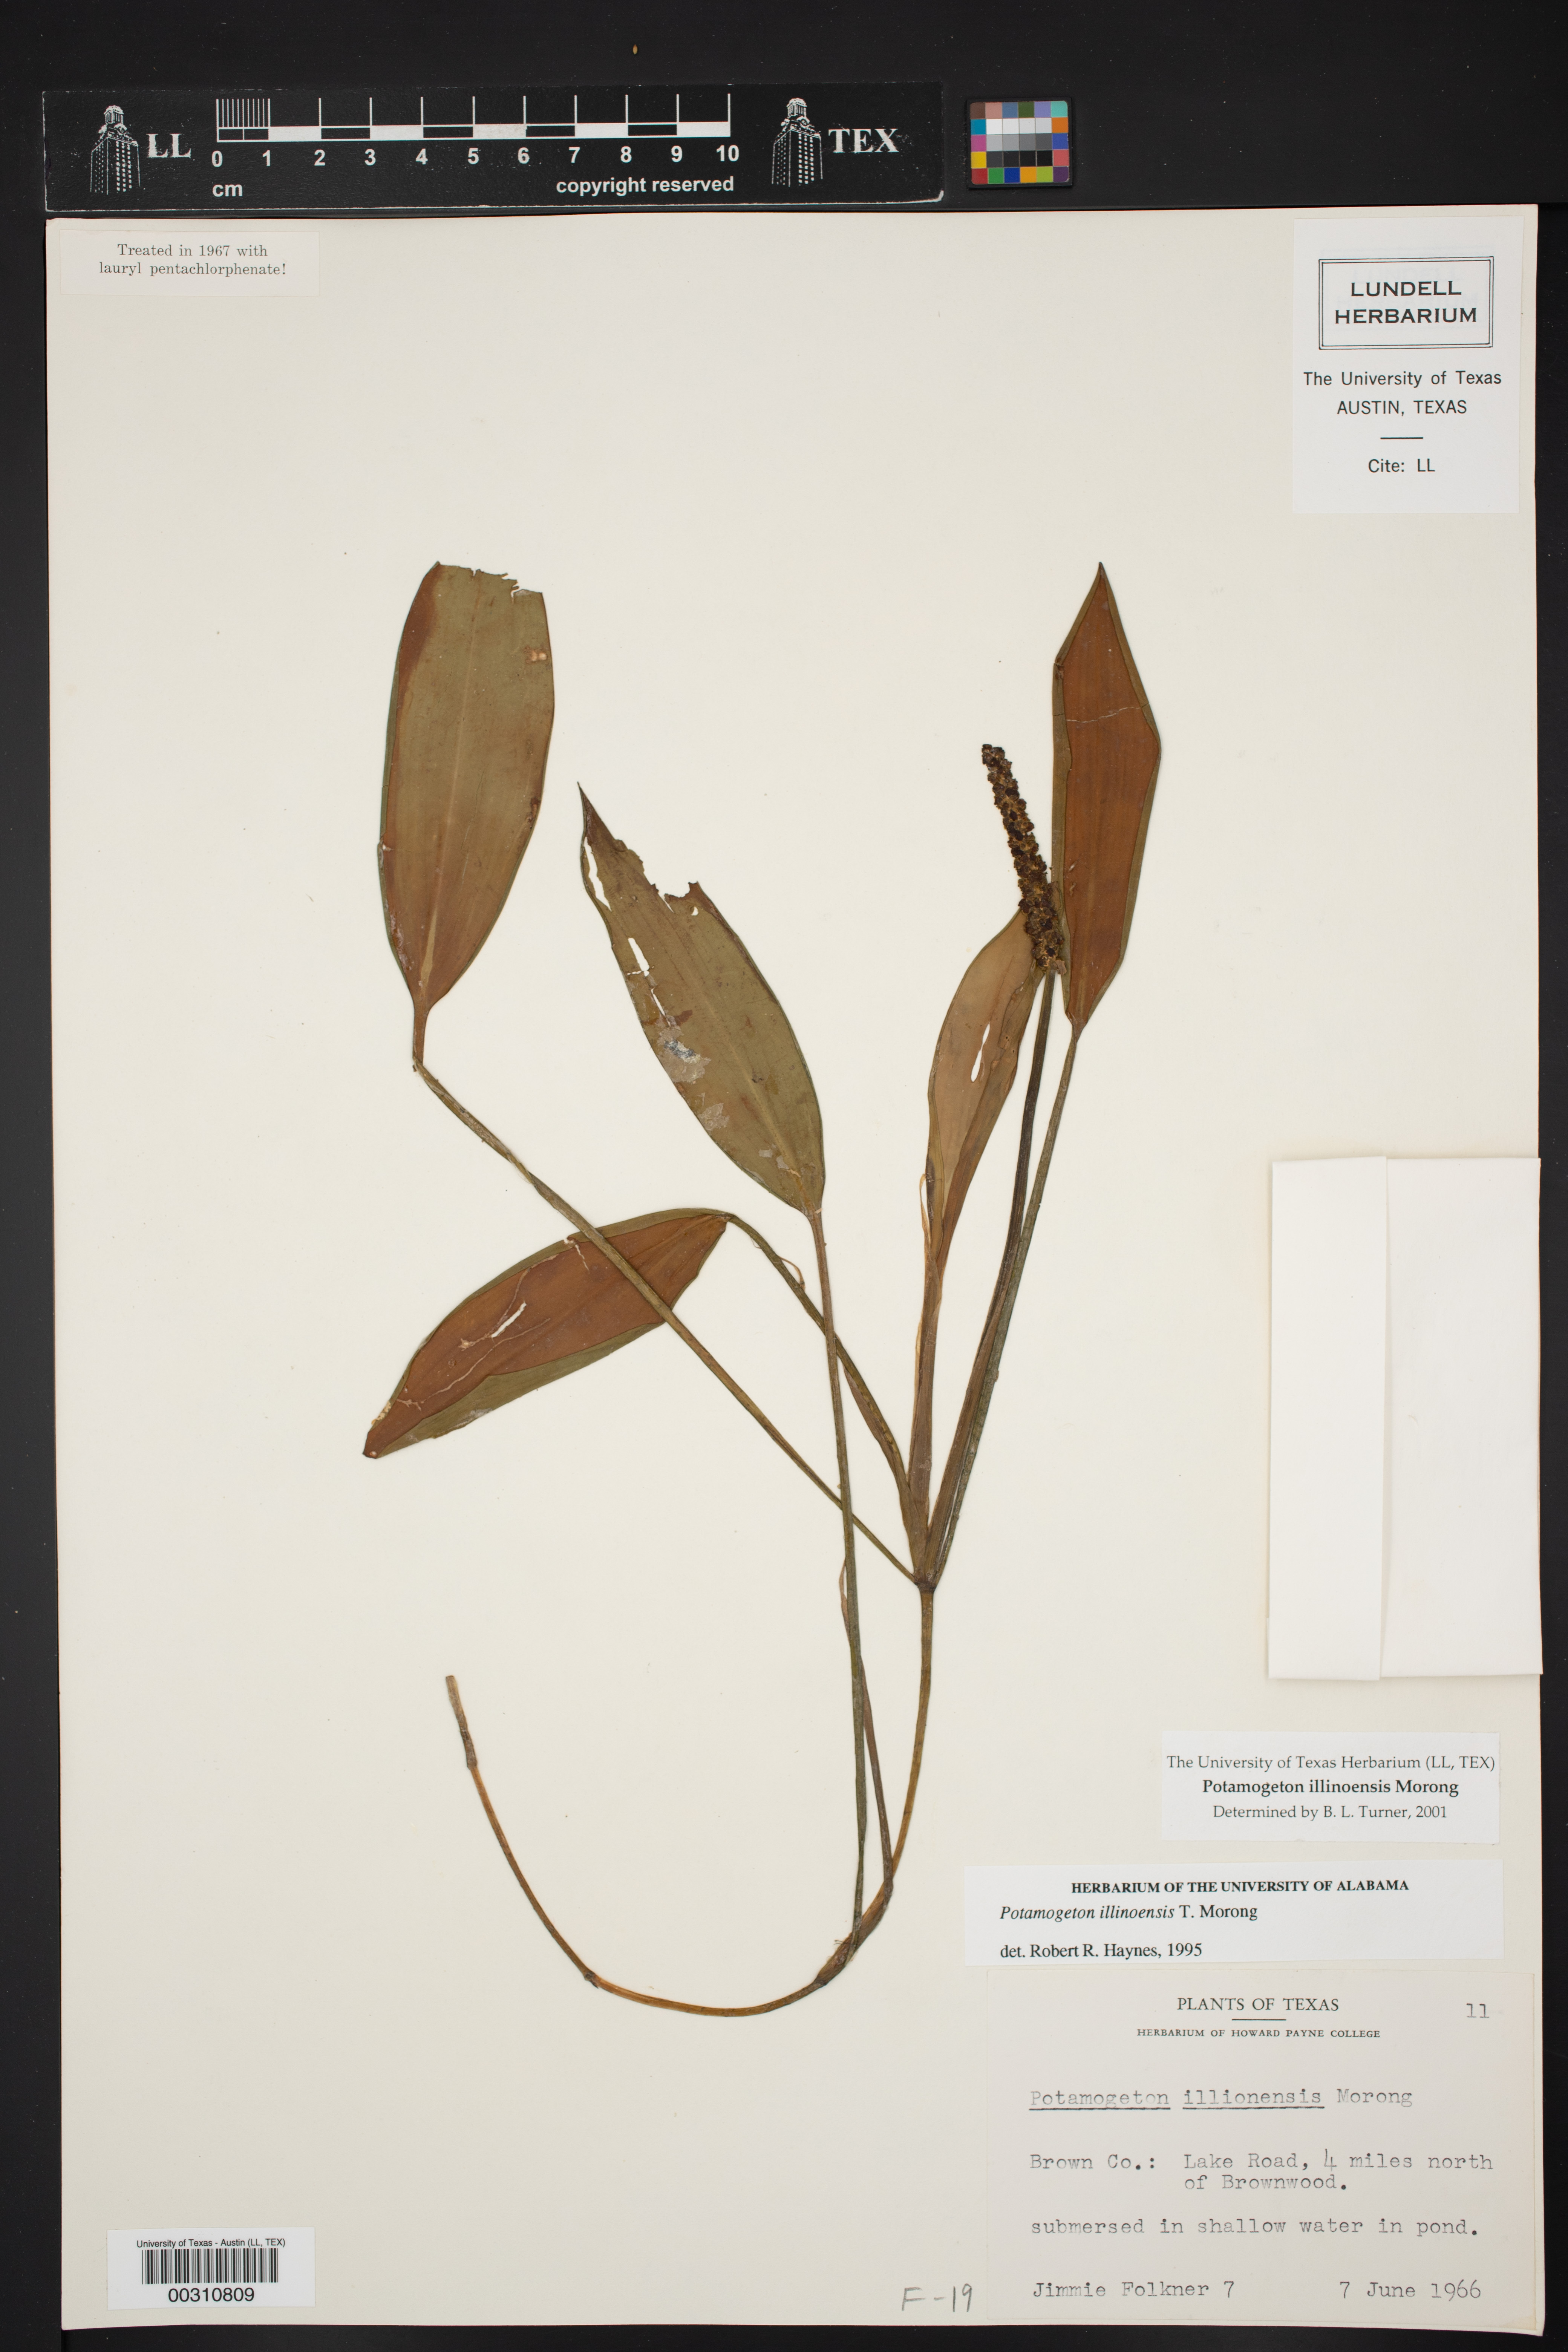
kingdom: Plantae
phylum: Tracheophyta
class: Liliopsida
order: Alismatales
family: Potamogetonaceae
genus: Potamogeton
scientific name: Potamogeton illinoensis
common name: Illinois pondweed
